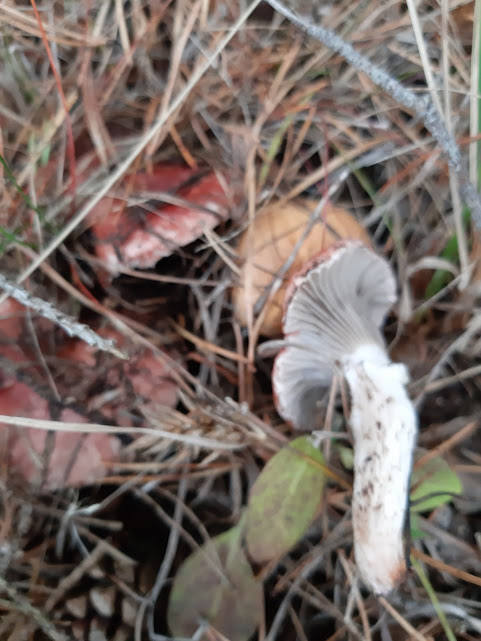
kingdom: Fungi
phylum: Basidiomycota
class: Agaricomycetes
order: Boletales
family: Gomphidiaceae
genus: Gomphidius
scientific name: Gomphidius roseus
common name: rosenrød slimslør
